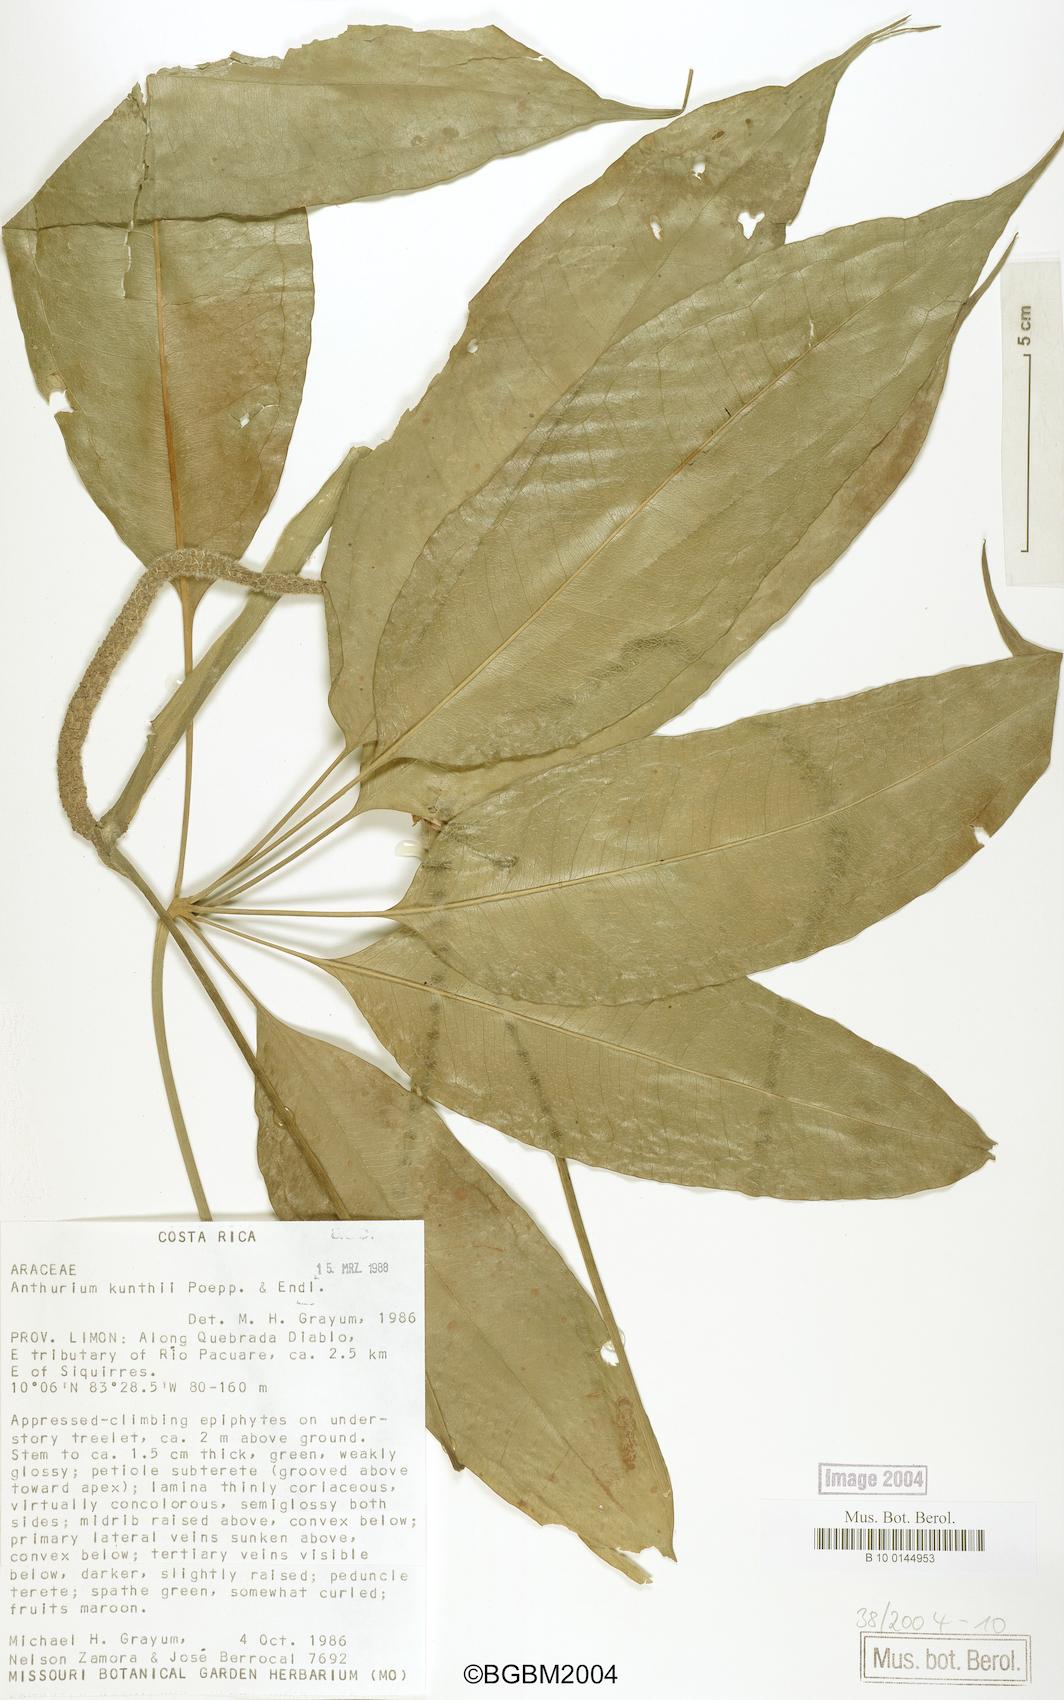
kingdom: Plantae
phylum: Tracheophyta
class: Liliopsida
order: Alismatales
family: Araceae
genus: Anthurium
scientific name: Anthurium kunthii
